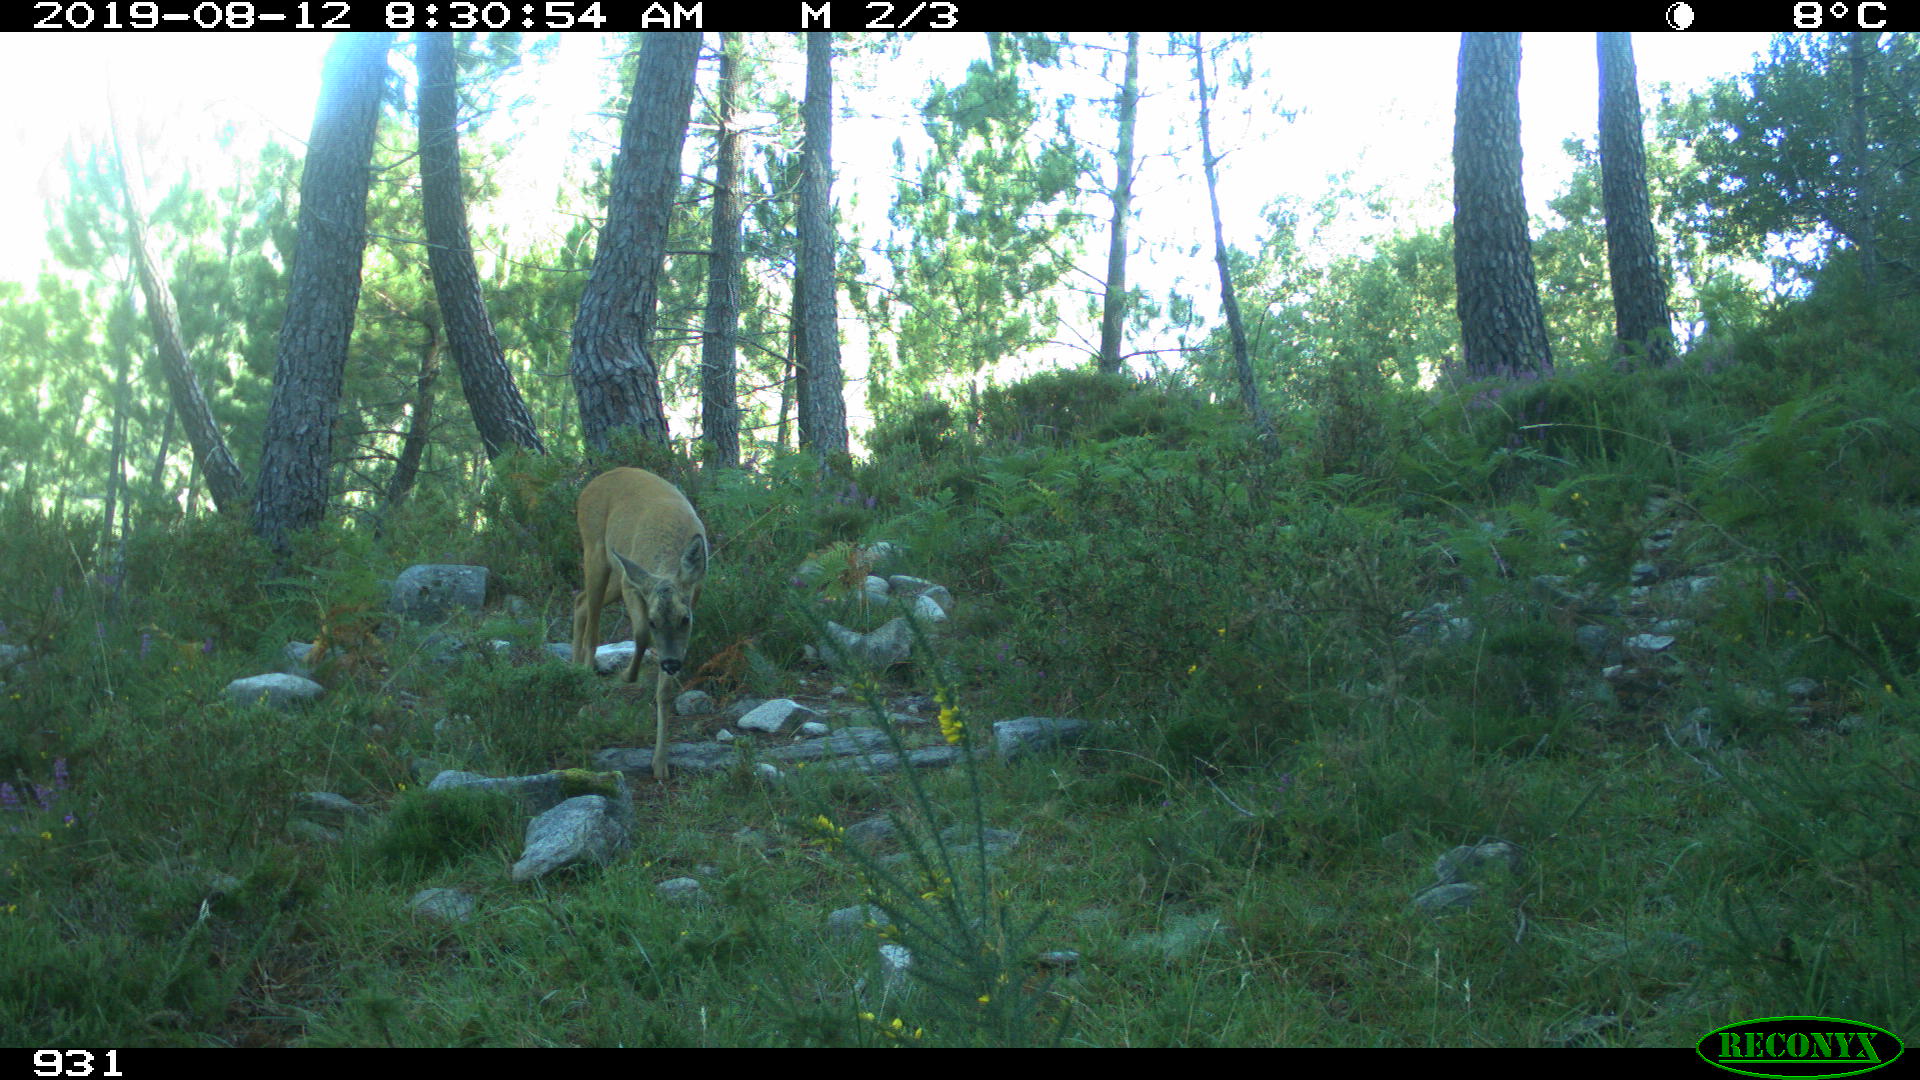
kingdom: Animalia
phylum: Chordata
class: Mammalia
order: Artiodactyla
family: Cervidae
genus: Capreolus
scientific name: Capreolus capreolus
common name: Western roe deer
